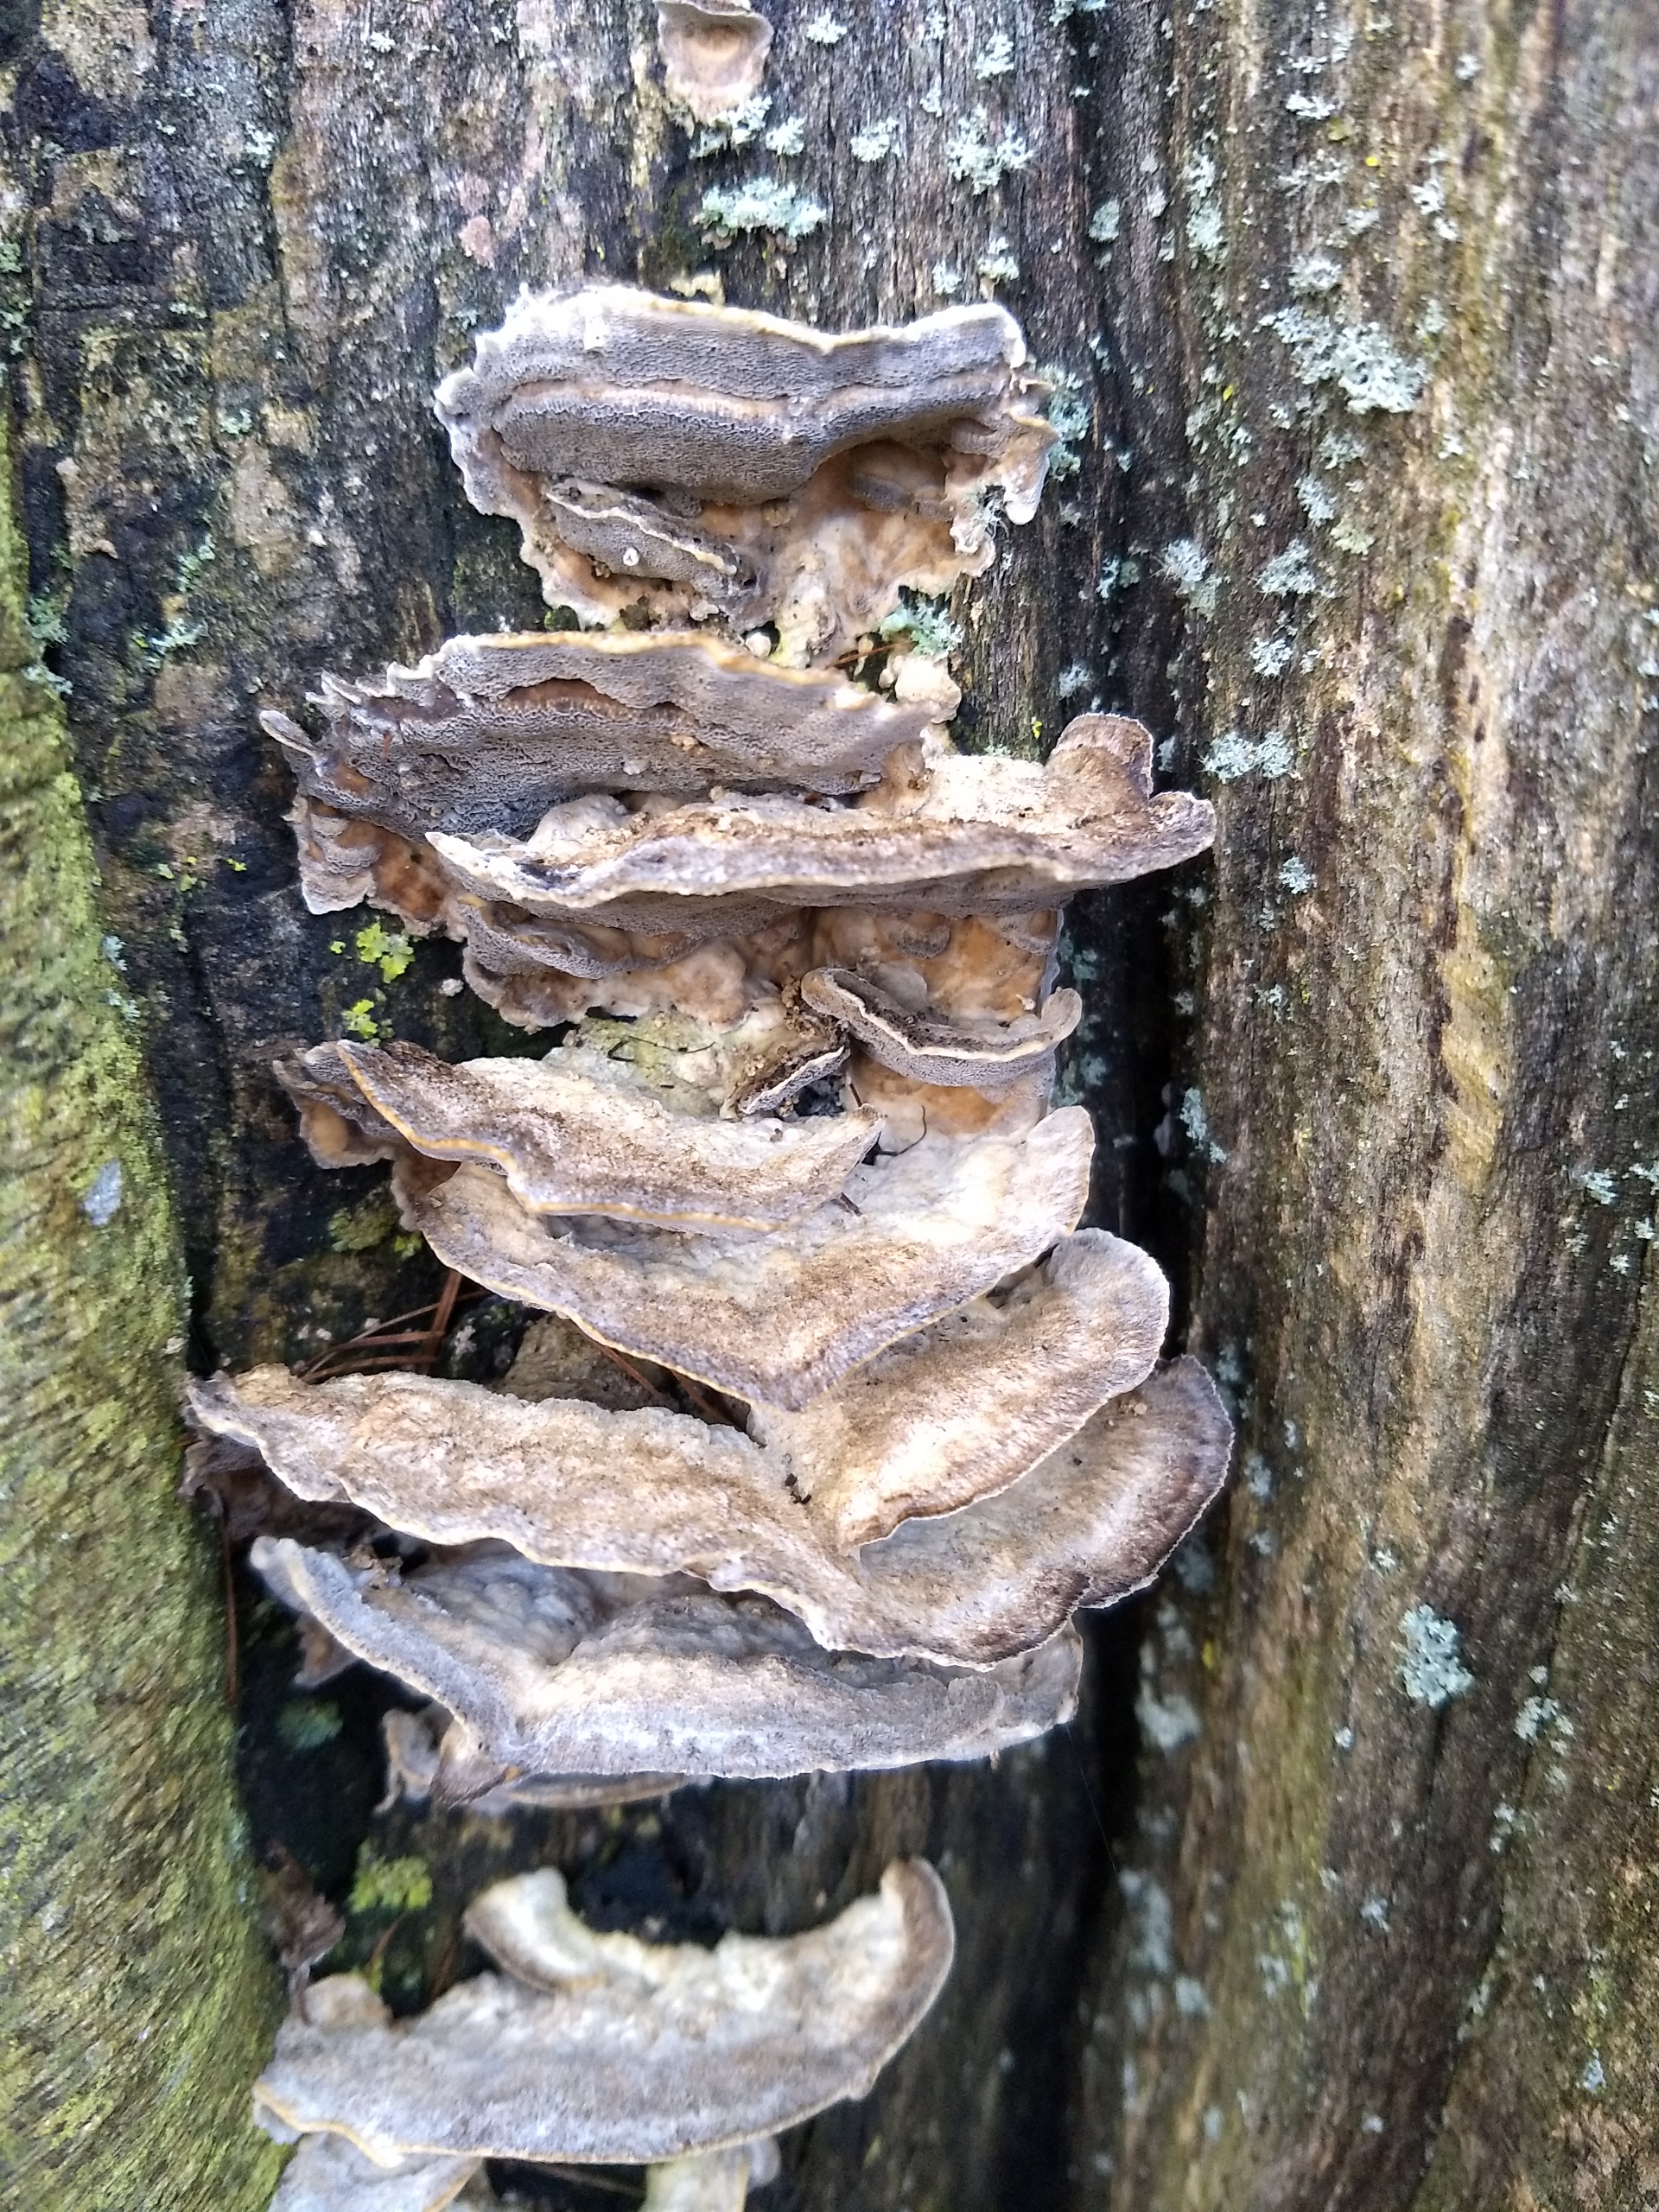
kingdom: Fungi
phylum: Basidiomycota
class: Agaricomycetes
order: Polyporales
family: Phanerochaetaceae
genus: Bjerkandera
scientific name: Bjerkandera adusta
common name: Sveden sodporesvamp
